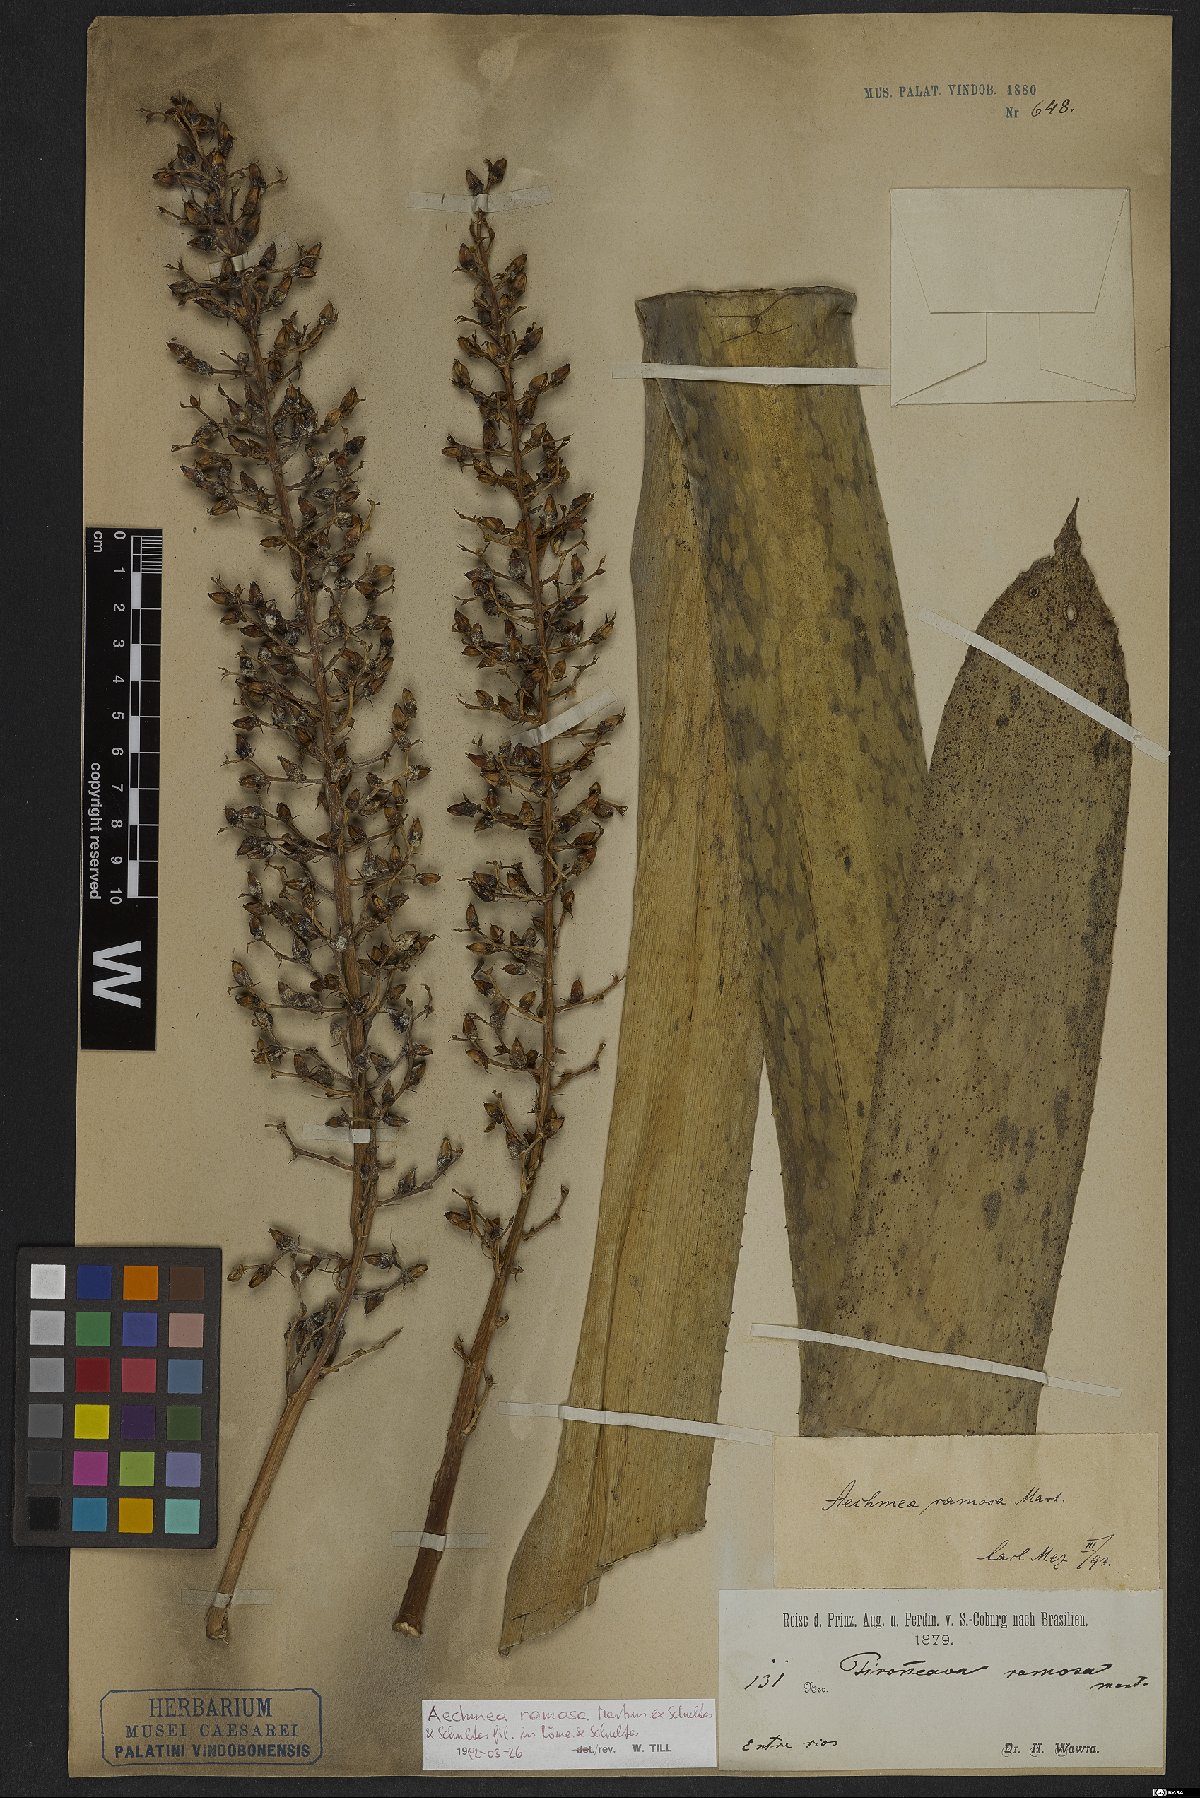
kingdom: Plantae
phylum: Tracheophyta
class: Liliopsida
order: Poales
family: Bromeliaceae
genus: Aechmea
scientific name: Aechmea ramosa
